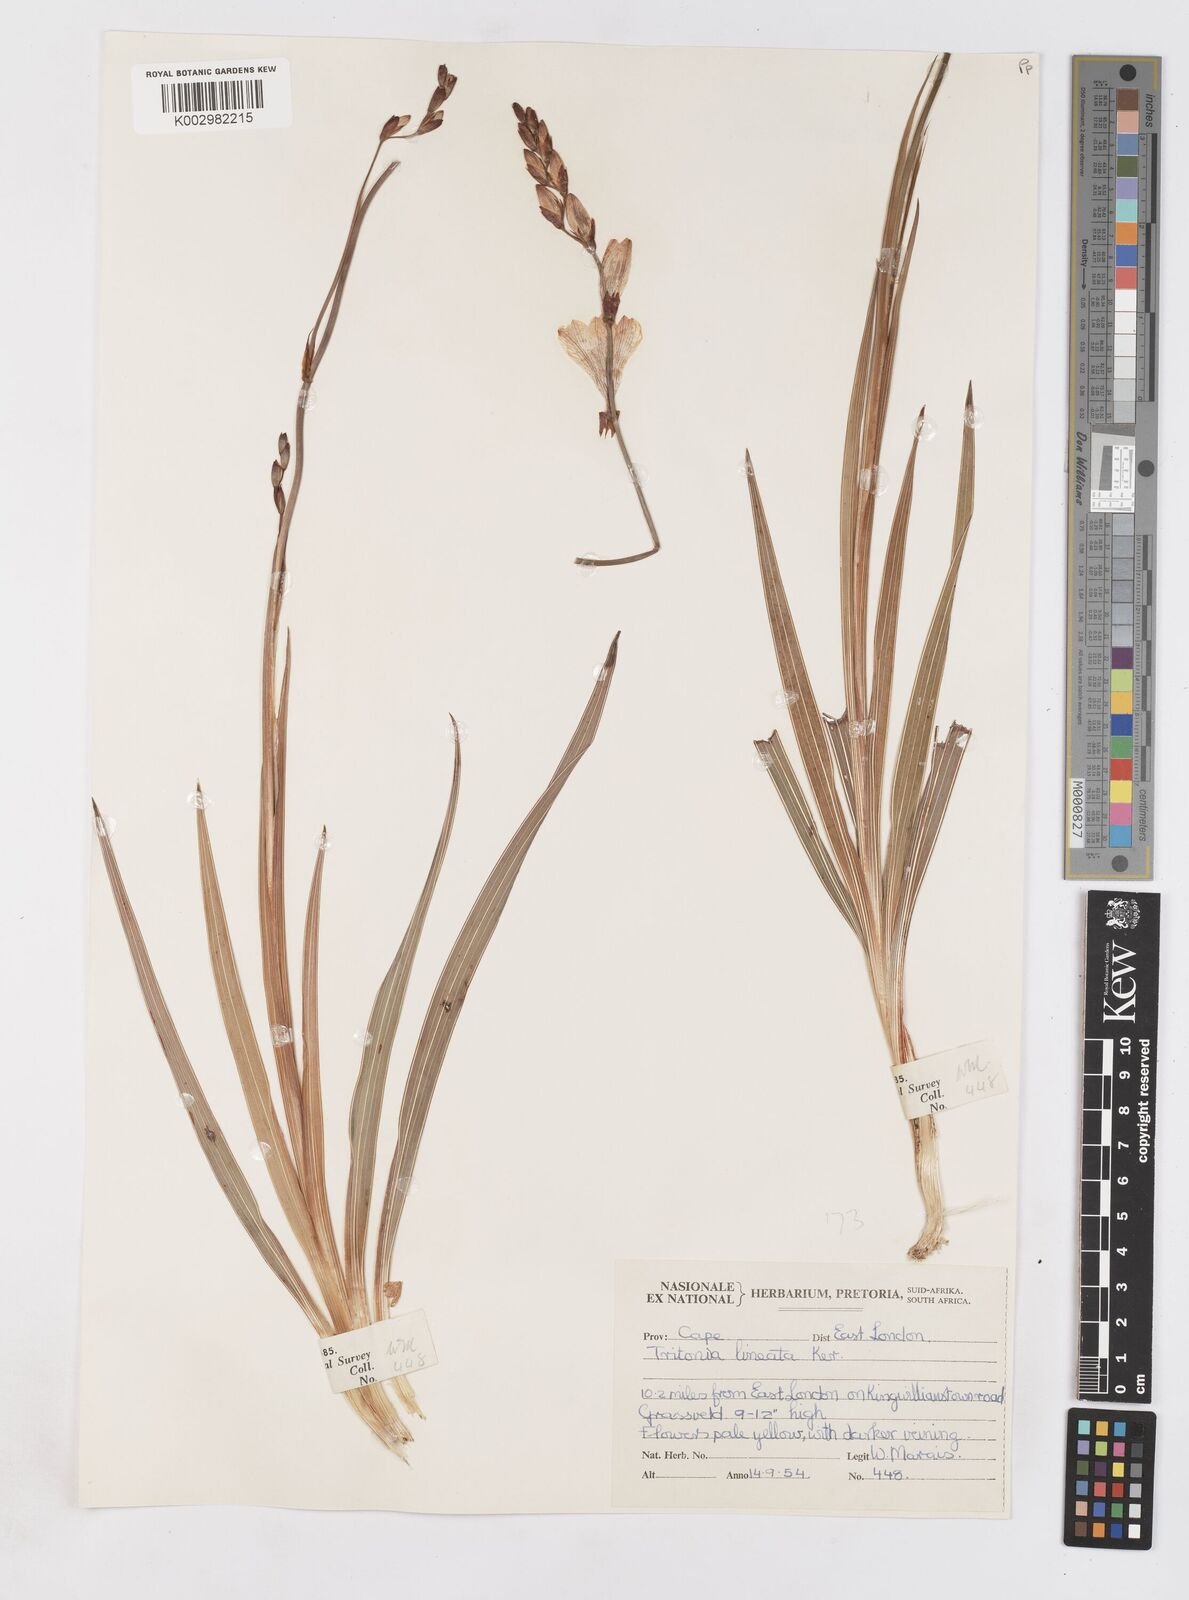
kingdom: Plantae
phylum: Tracheophyta
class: Liliopsida
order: Asparagales
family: Iridaceae
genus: Tritonia
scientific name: Tritonia gladiolaris
